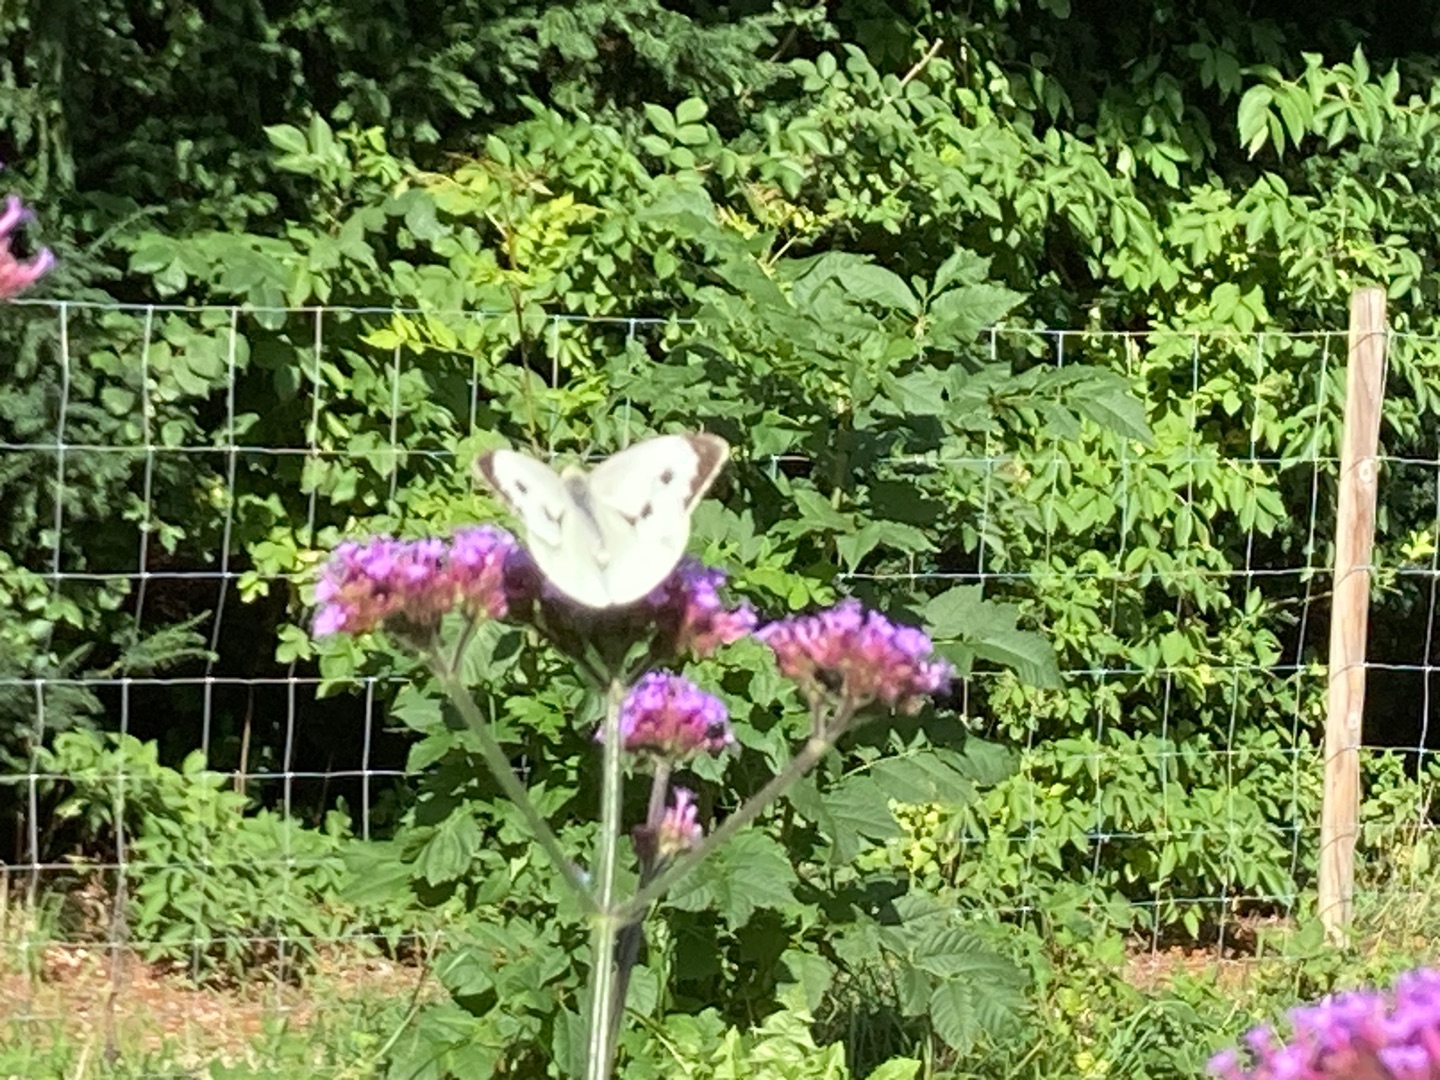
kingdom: Animalia
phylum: Arthropoda
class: Insecta
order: Lepidoptera
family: Pieridae
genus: Pieris
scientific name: Pieris brassicae
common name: Stor kålsommerfugl
